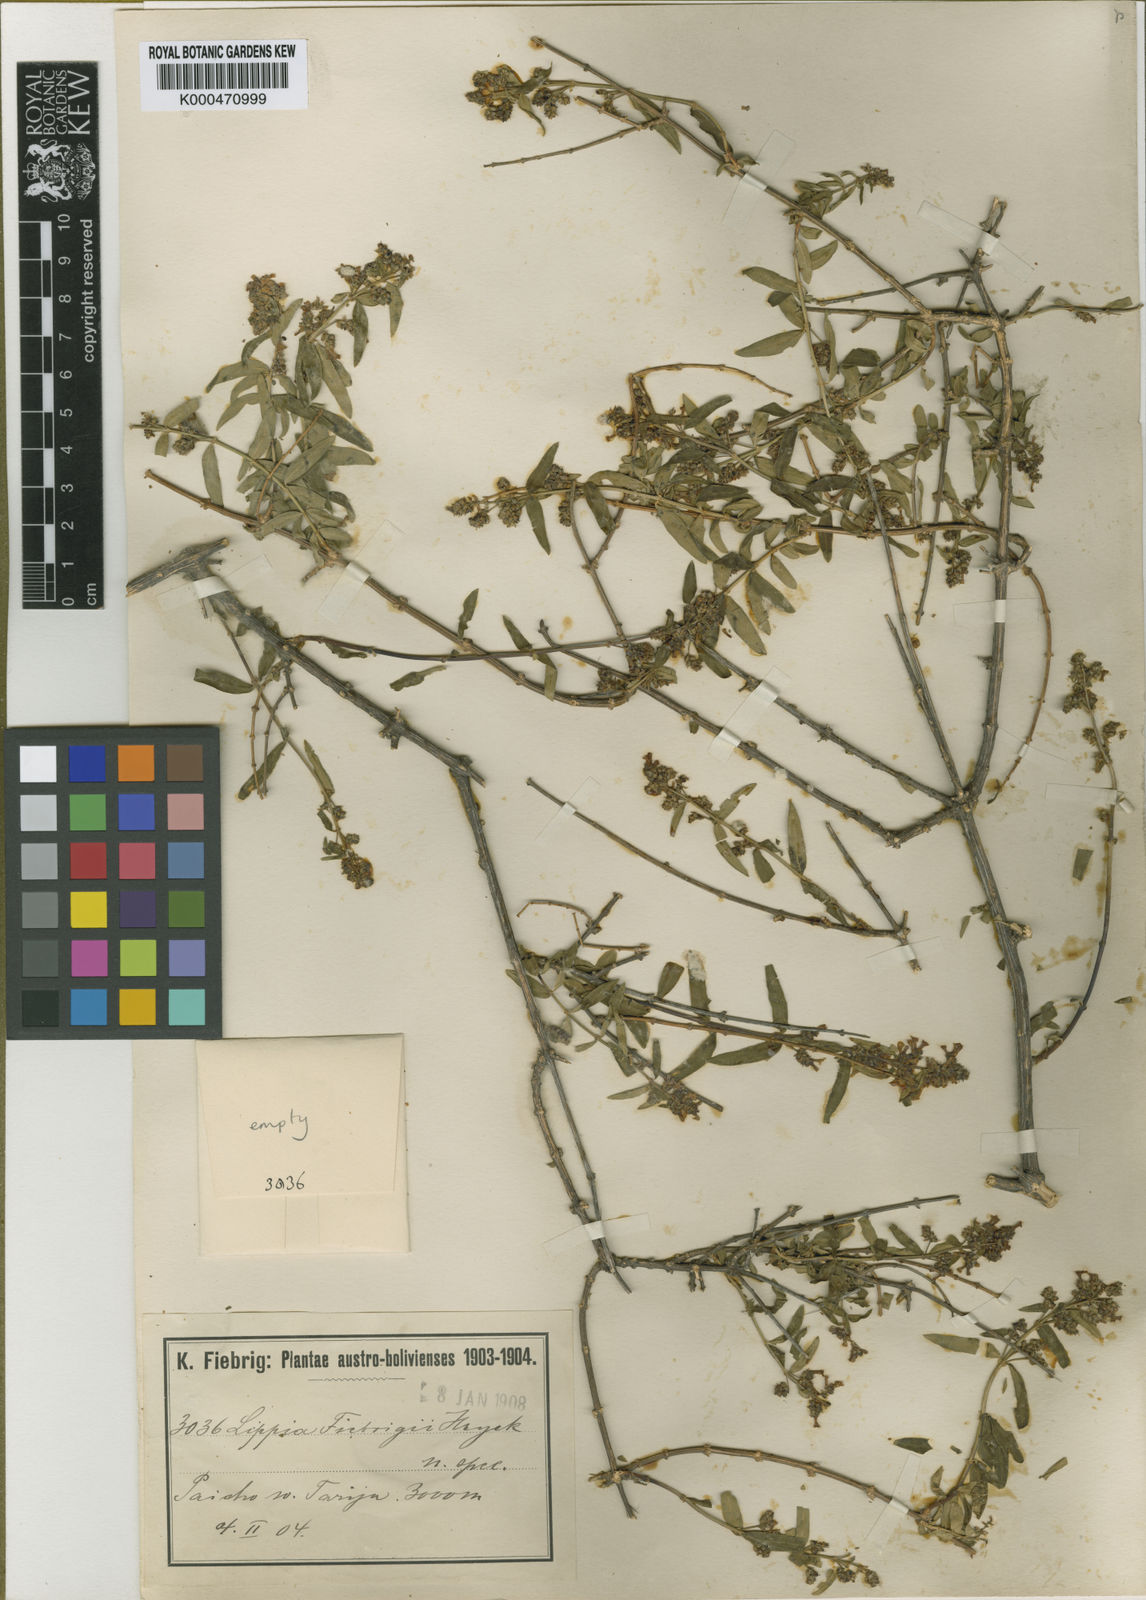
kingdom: Plantae
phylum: Tracheophyta
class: Magnoliopsida
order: Lamiales
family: Verbenaceae
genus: Aloysia
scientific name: Aloysia fiebrigii
